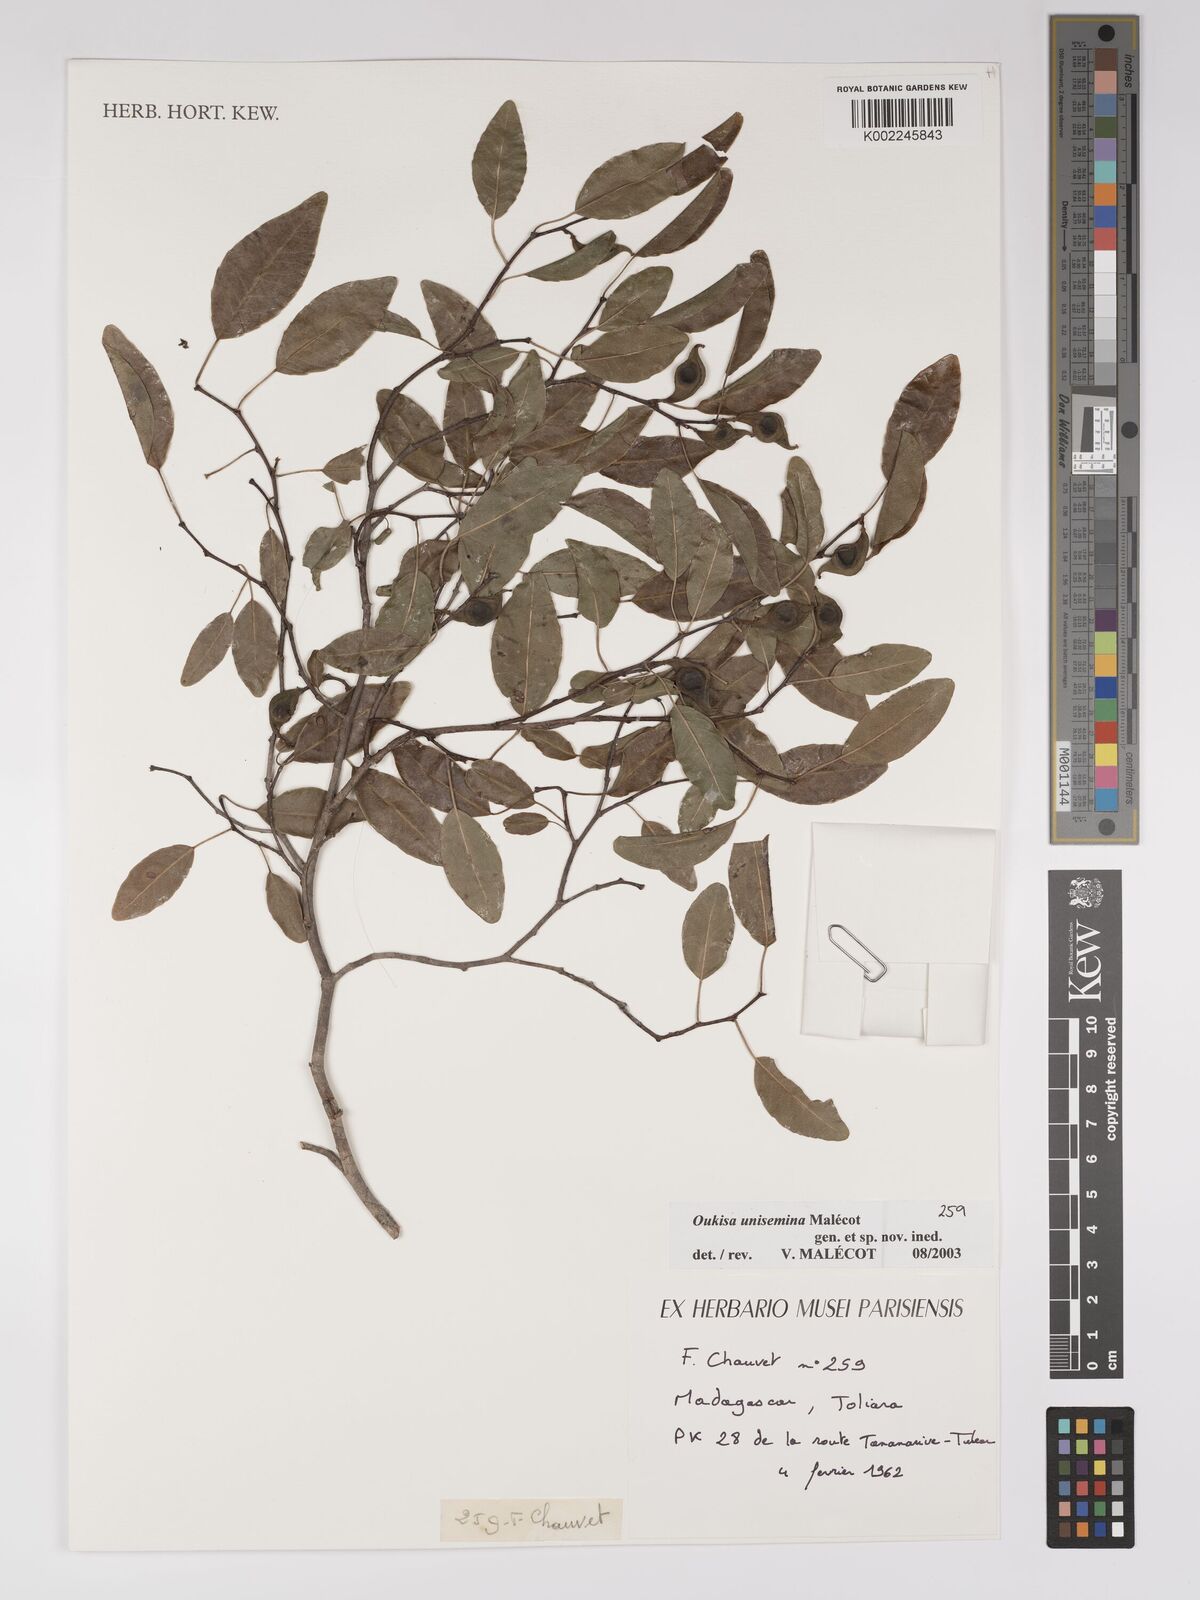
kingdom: Plantae
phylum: Tracheophyta
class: Magnoliopsida
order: Malpighiales
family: Euphorbiaceae
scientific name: Euphorbiaceae
